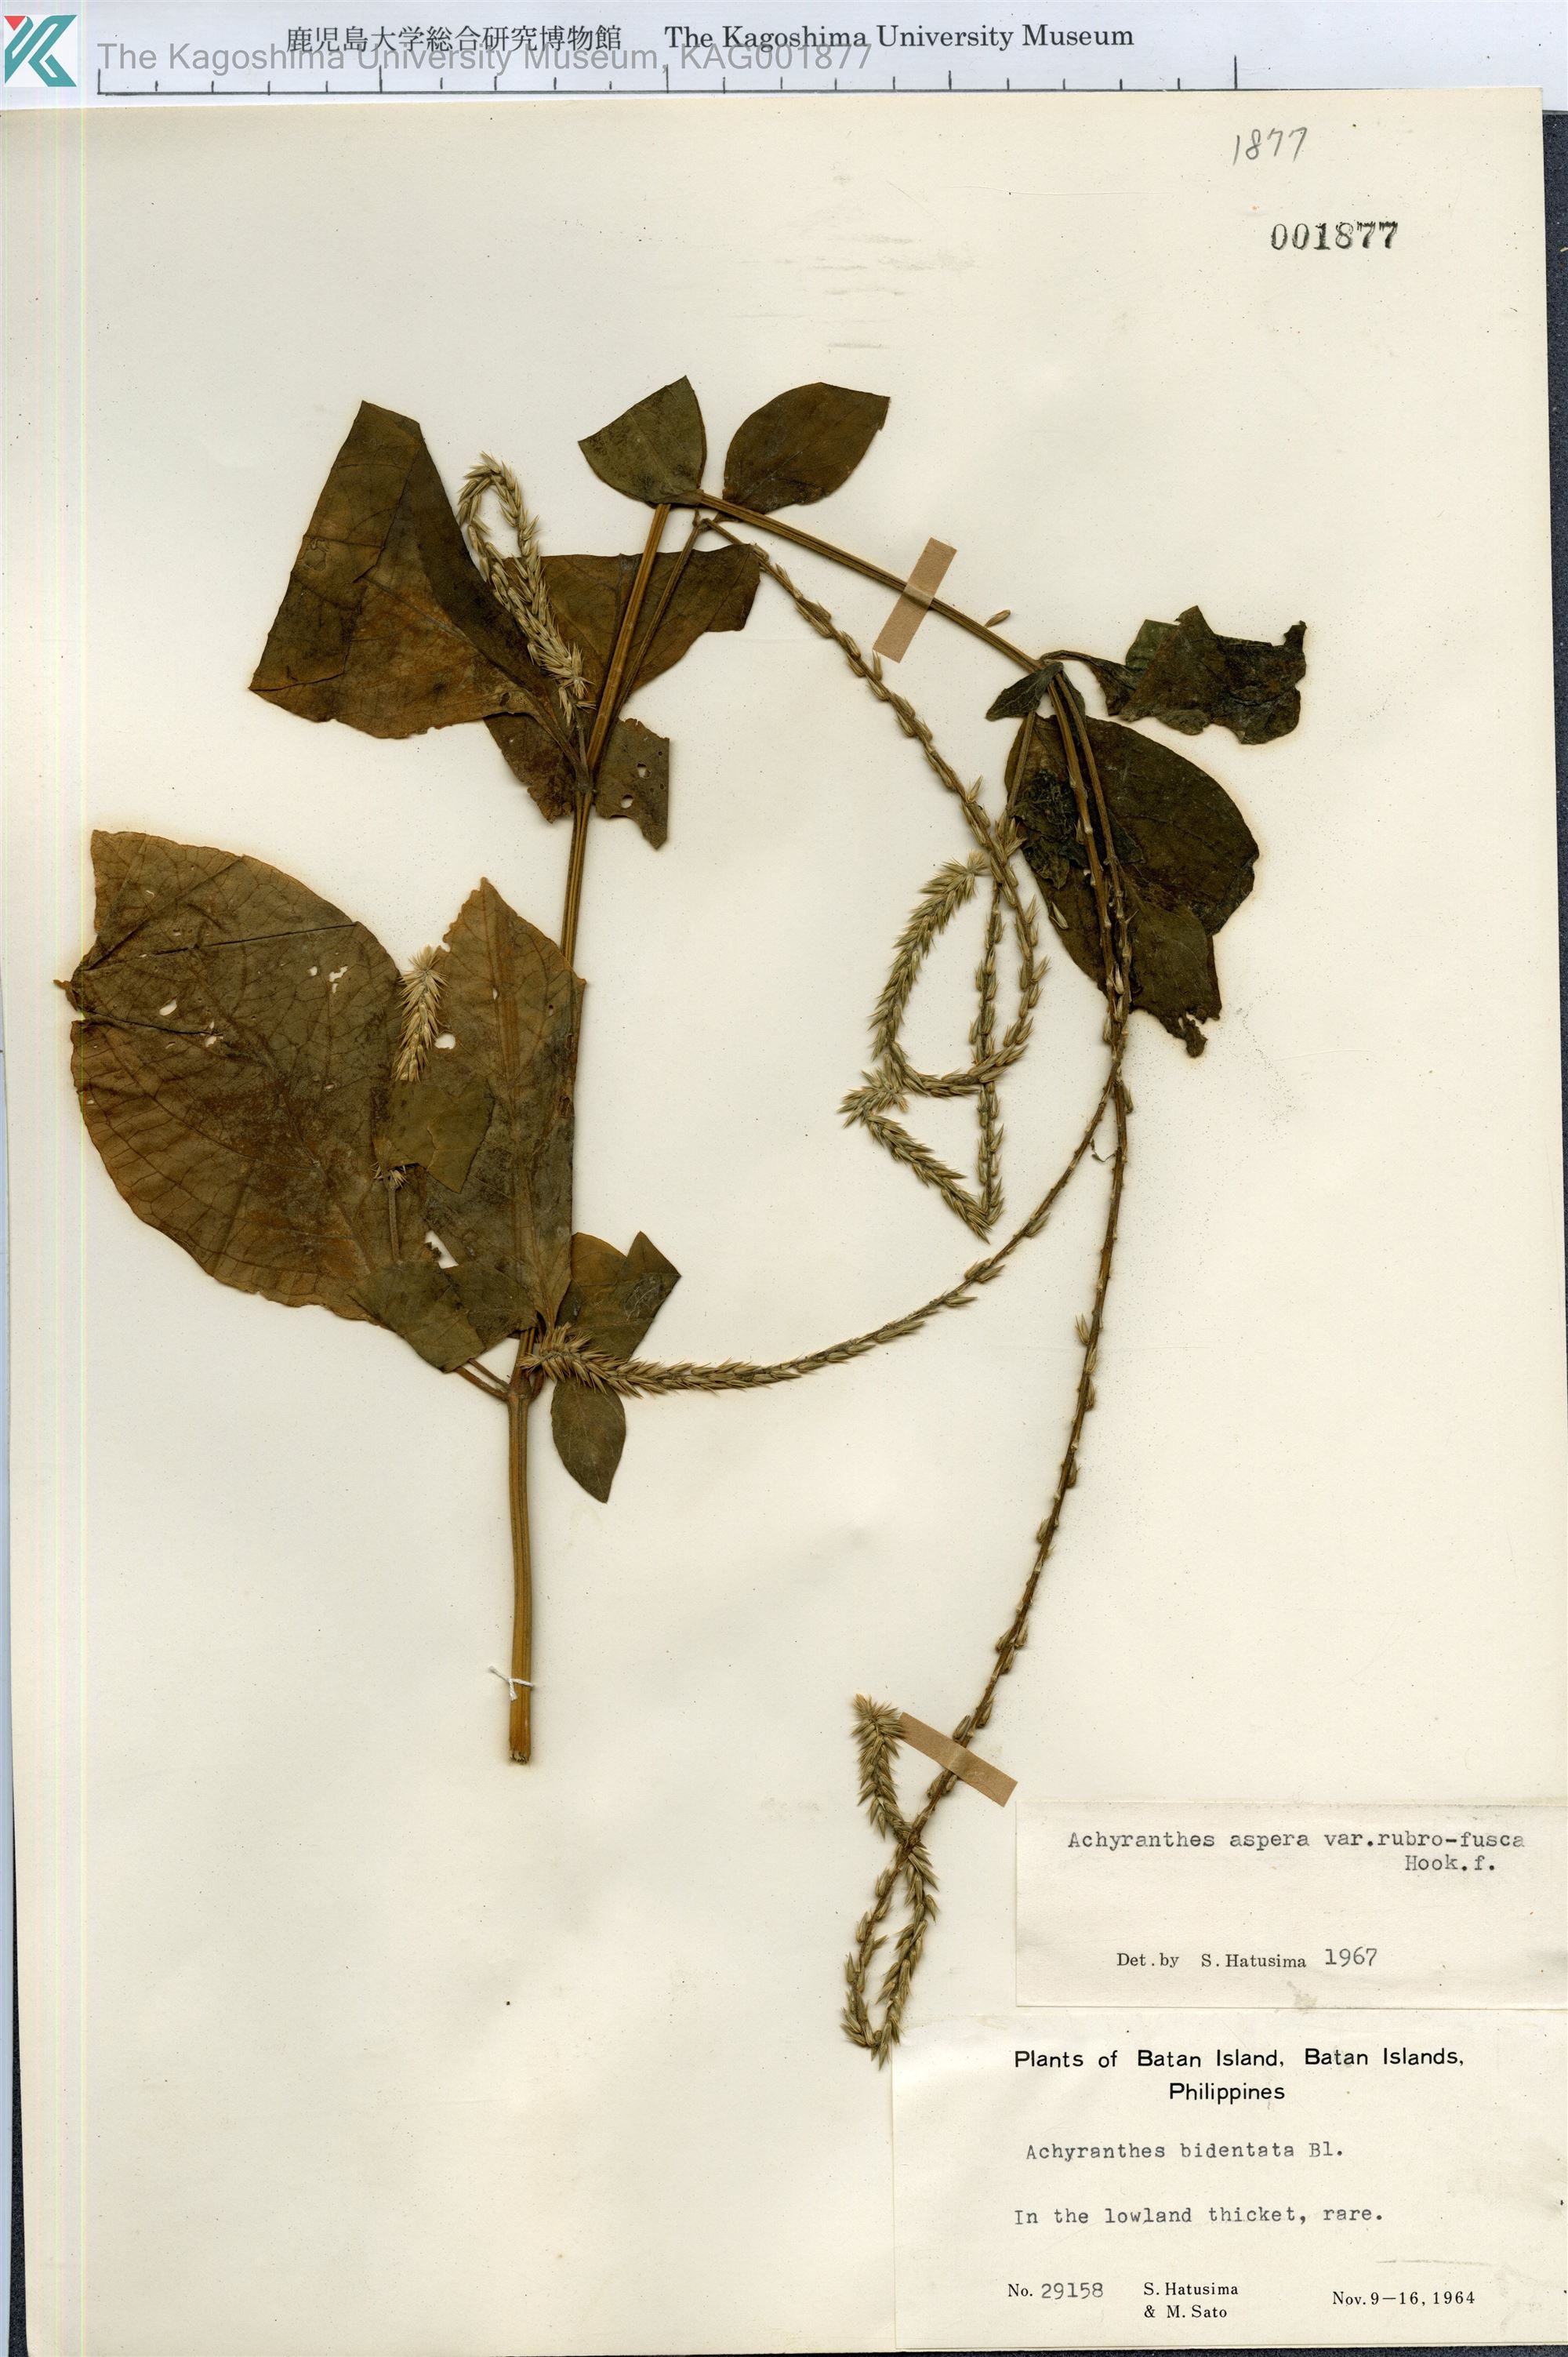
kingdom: Plantae
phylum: Tracheophyta
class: Magnoliopsida
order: Caryophyllales
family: Amaranthaceae
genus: Achyranthes
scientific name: Achyranthes aspera
